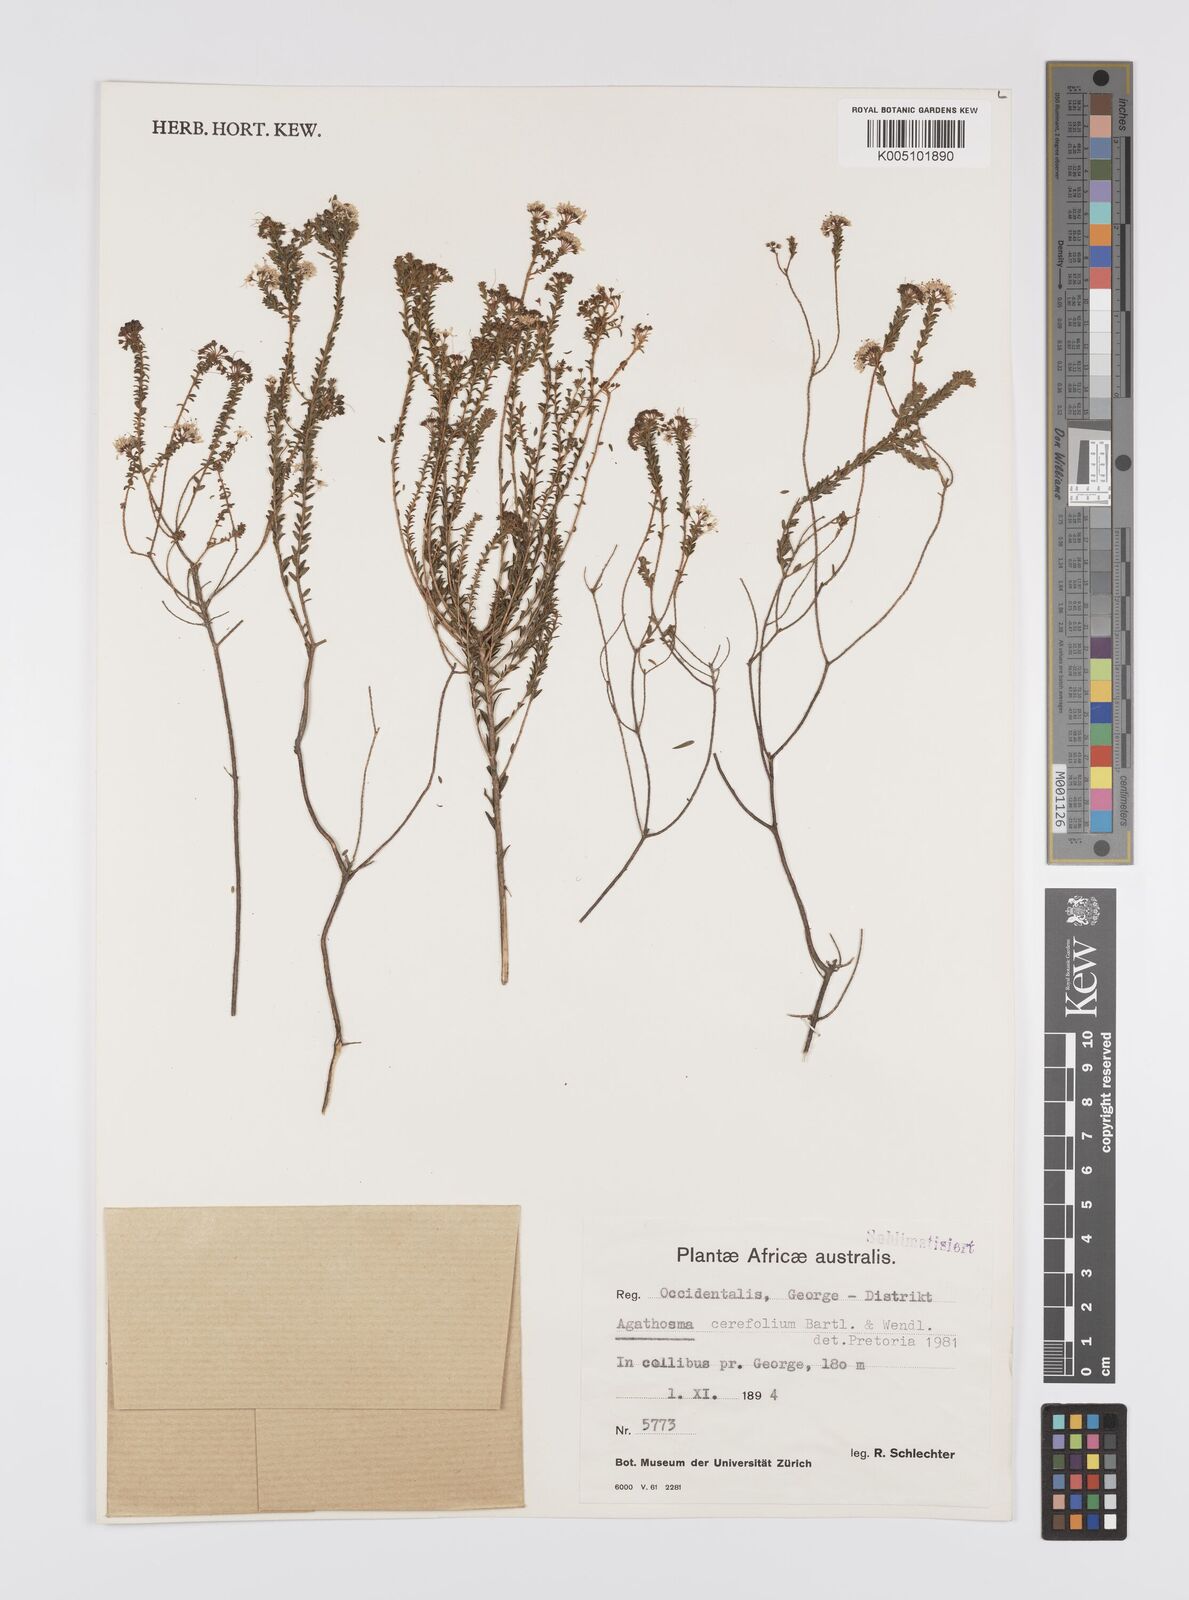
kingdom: Plantae
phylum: Tracheophyta
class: Magnoliopsida
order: Sapindales
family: Rutaceae
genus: Agathosma
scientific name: Agathosma cerefolia
